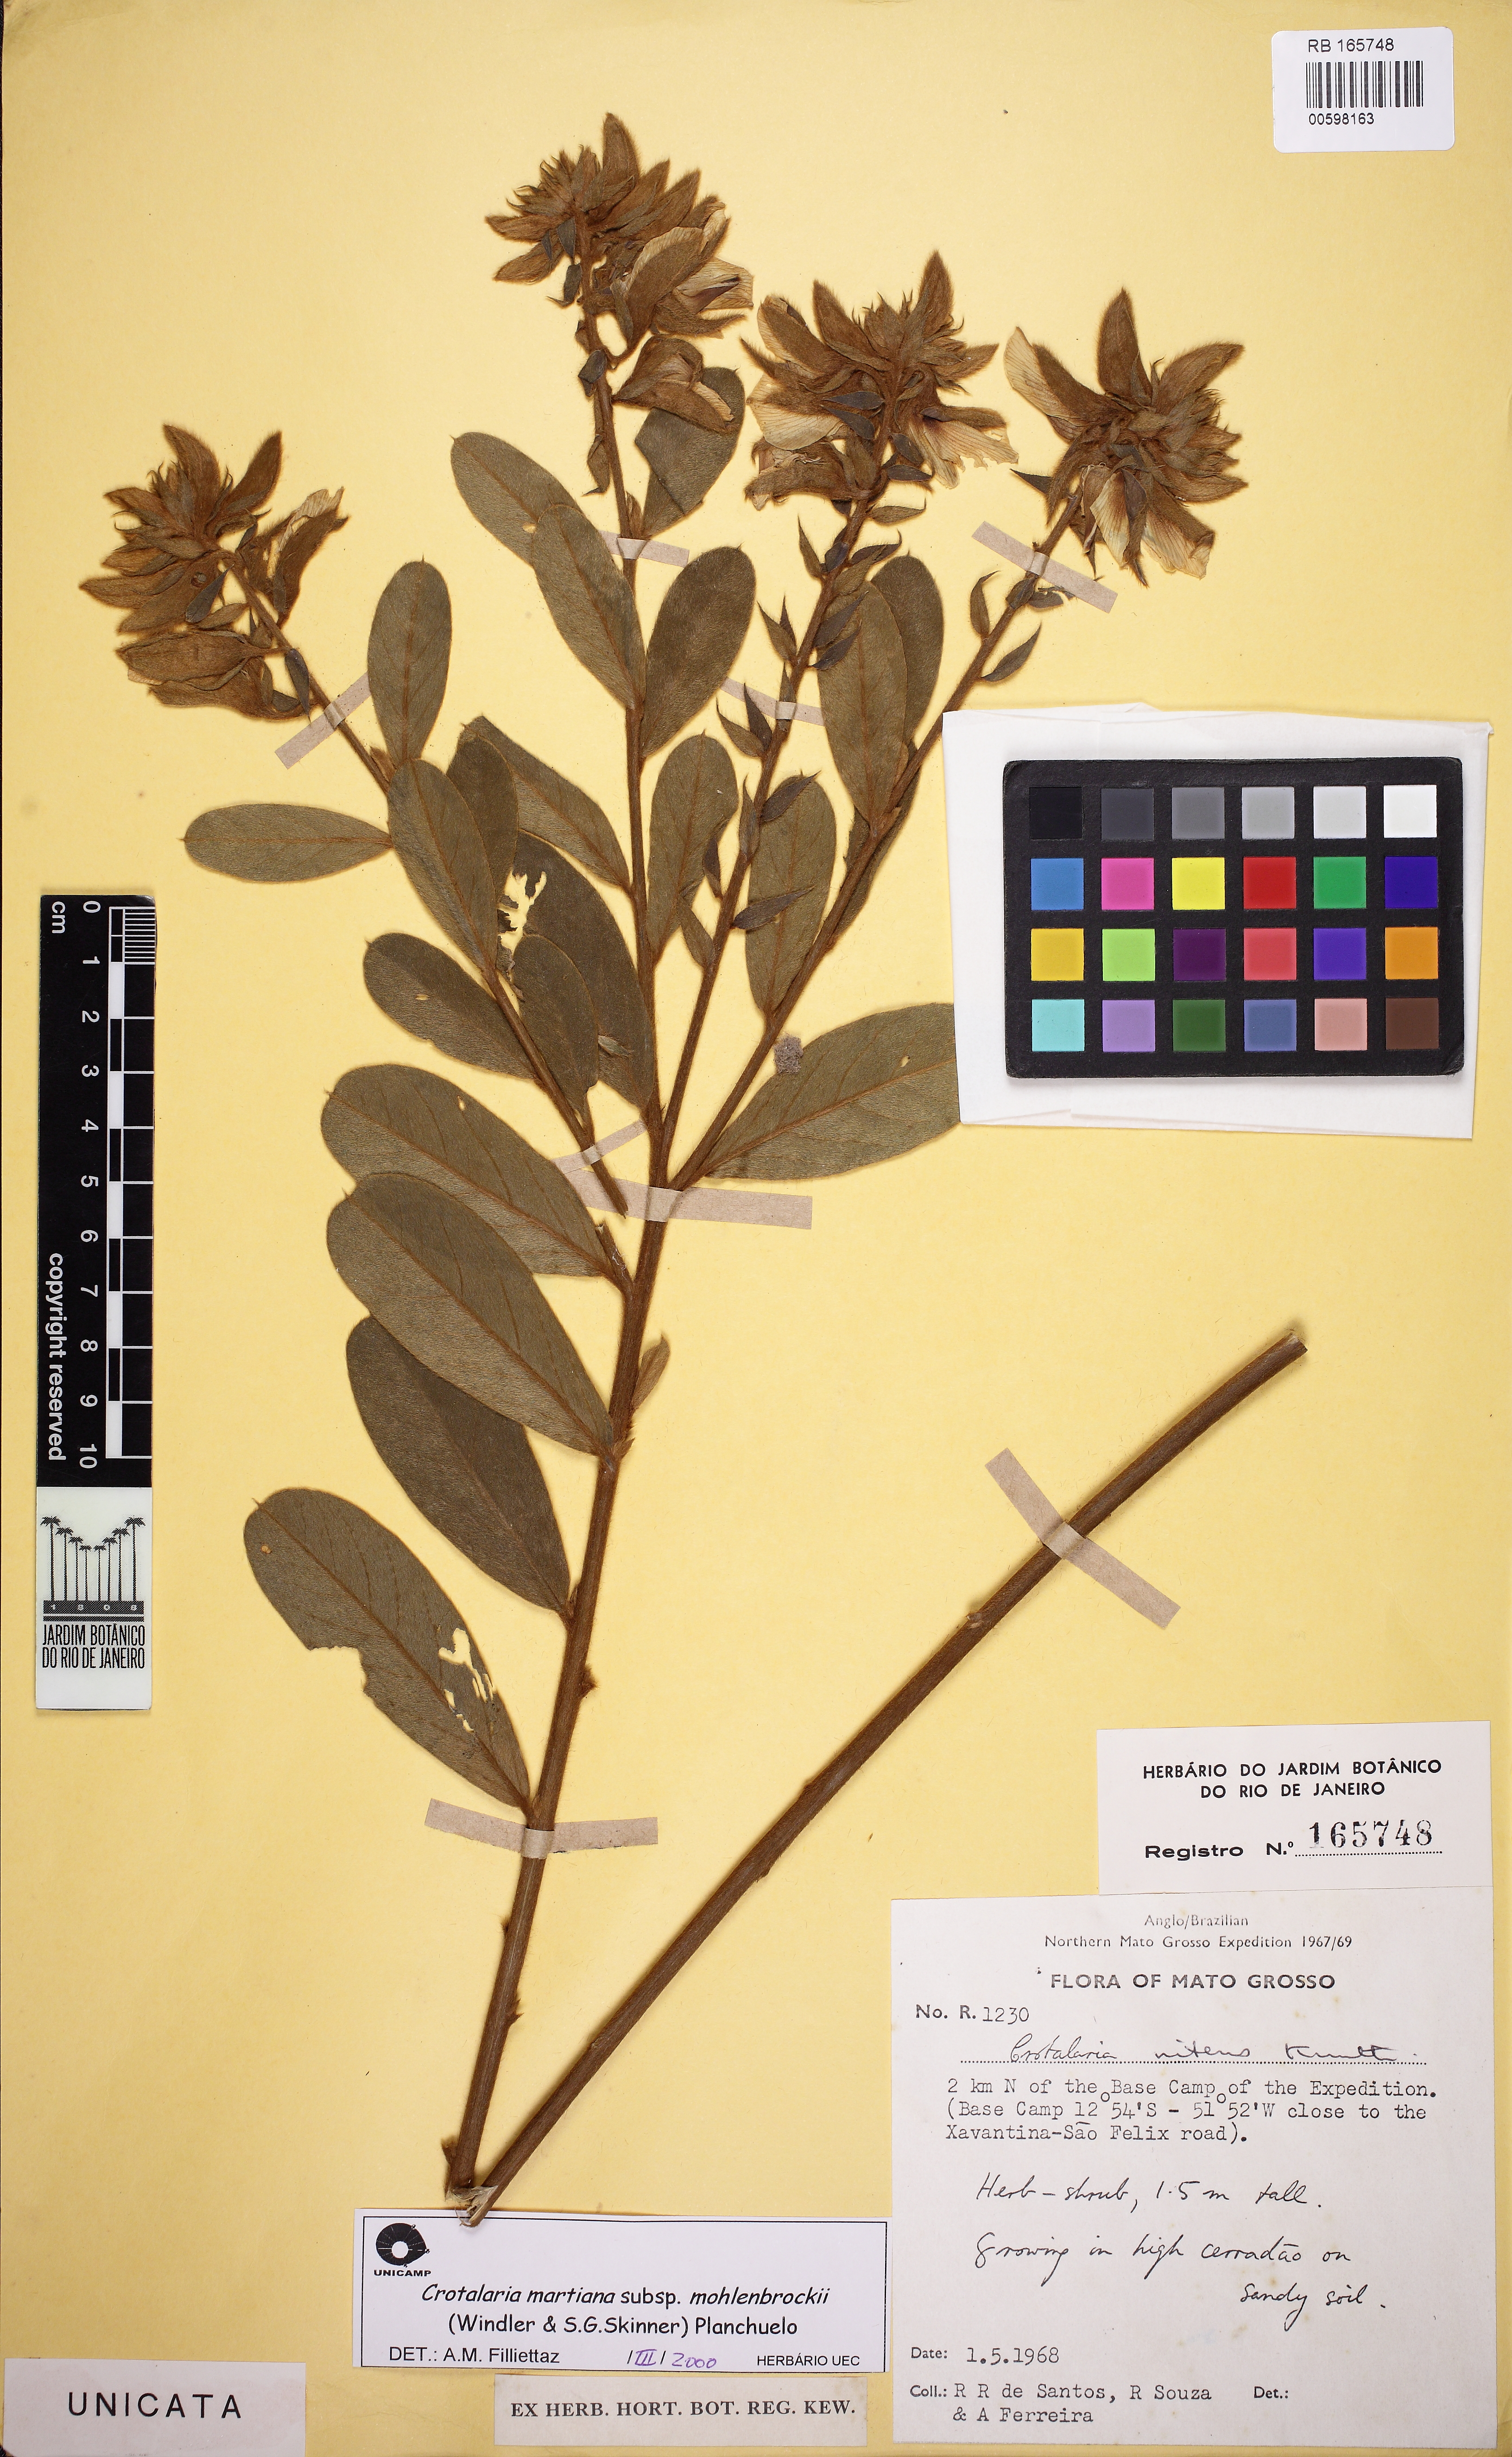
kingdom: Plantae
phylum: Tracheophyta
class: Magnoliopsida
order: Fabales
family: Fabaceae
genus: Crotalaria
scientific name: Crotalaria martiana
